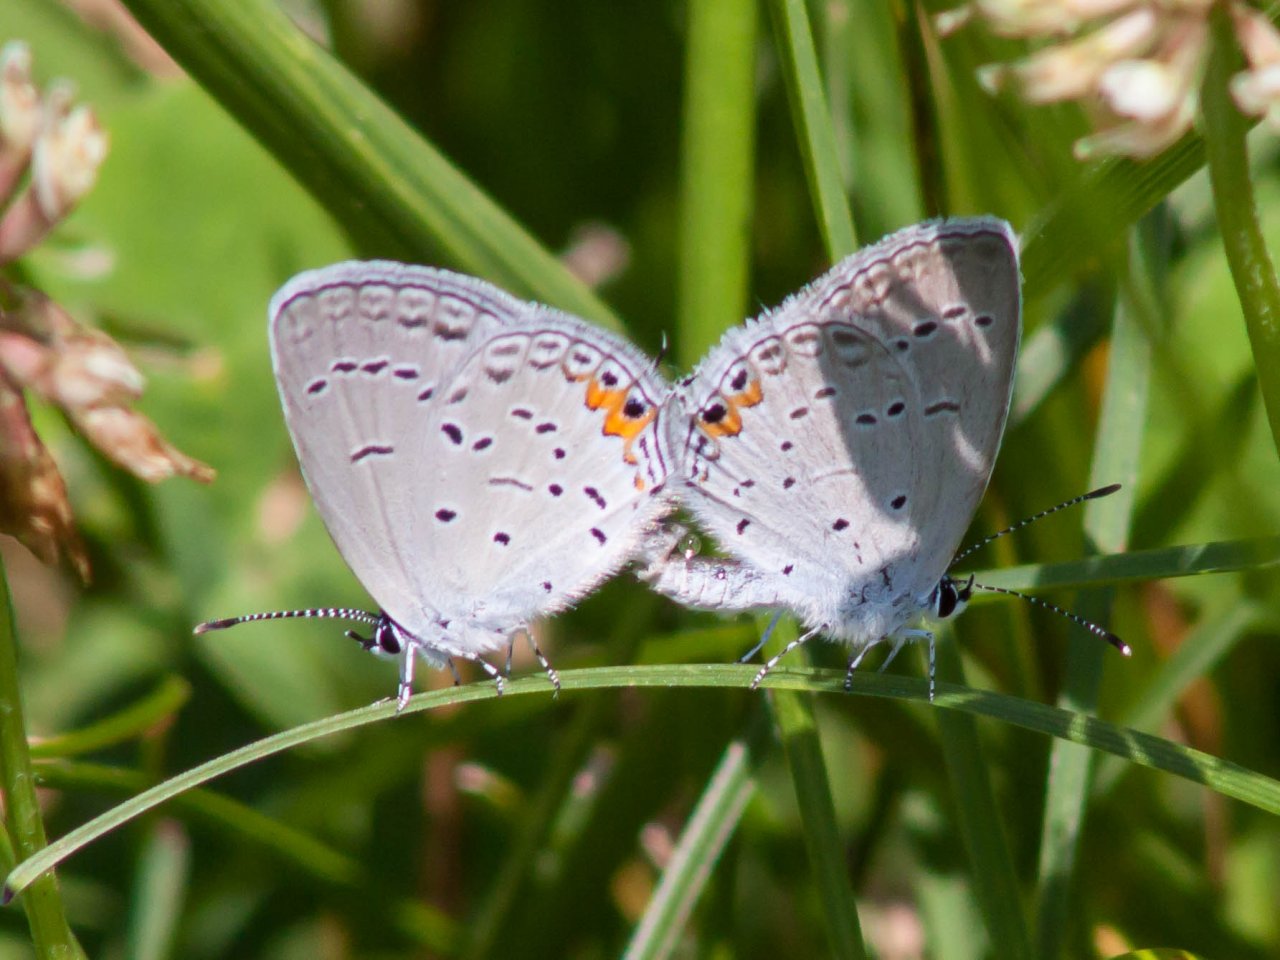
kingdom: Animalia
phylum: Arthropoda
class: Insecta
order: Lepidoptera
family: Lycaenidae
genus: Elkalyce
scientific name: Elkalyce comyntas
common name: Eastern Tailed-Blue
